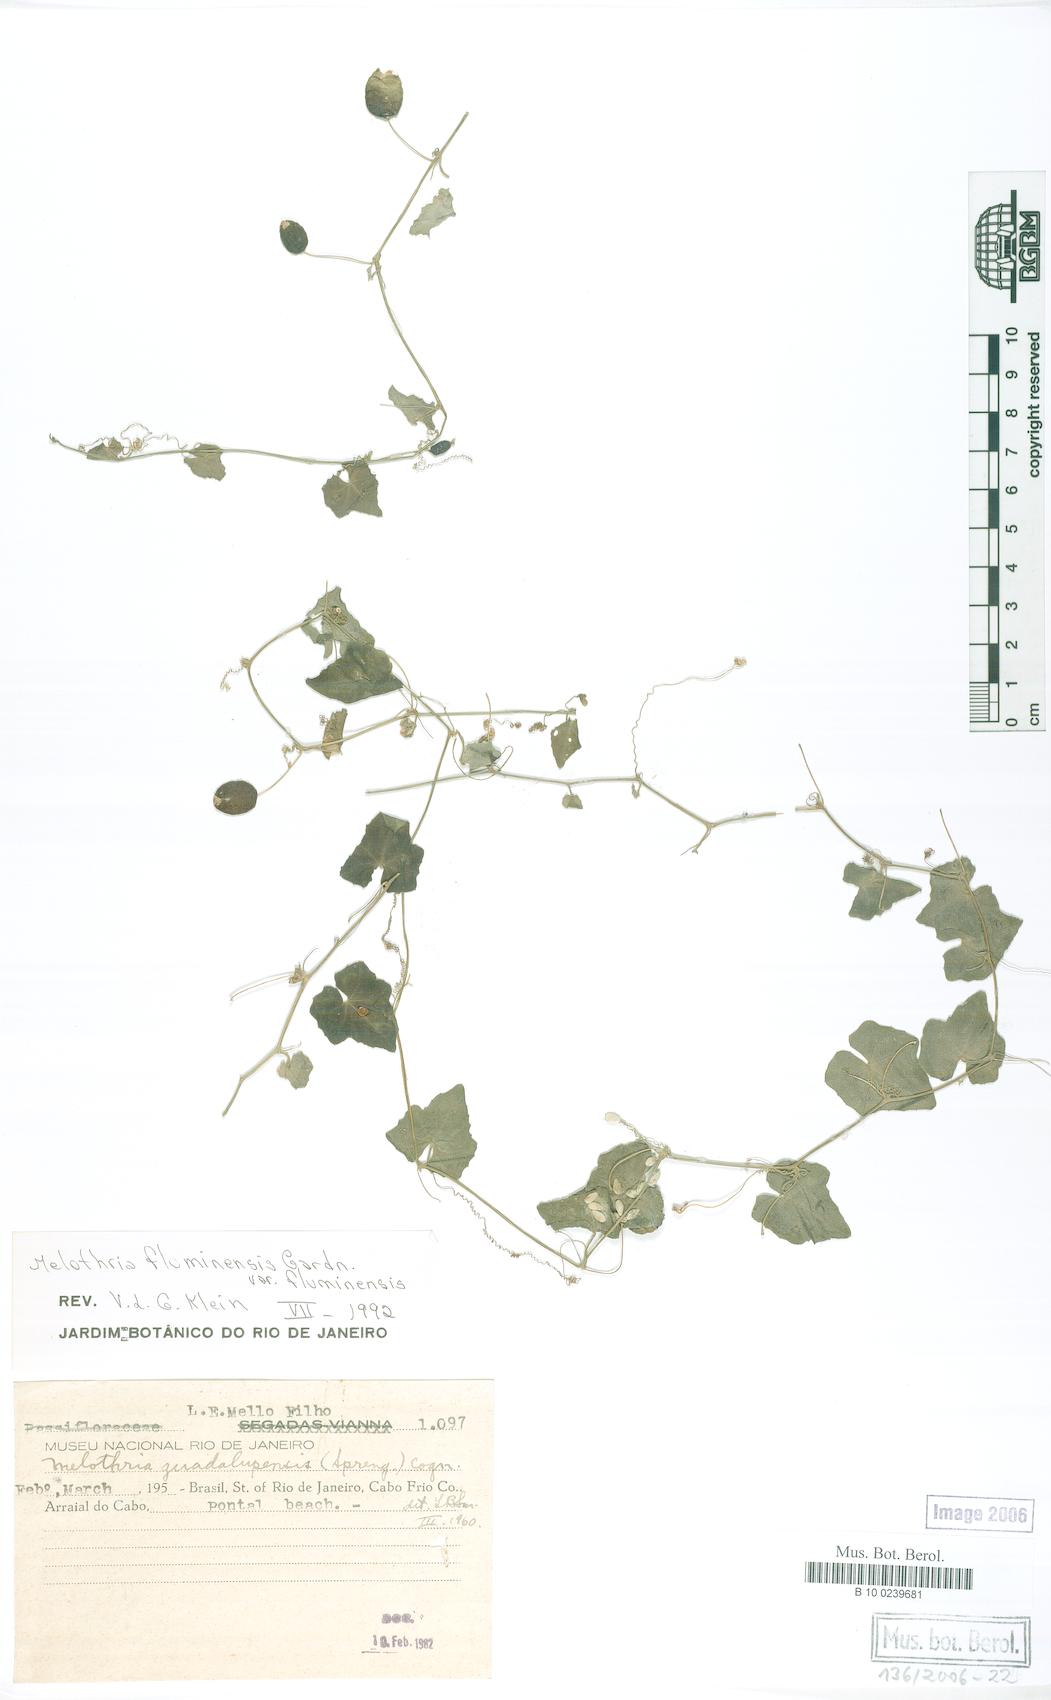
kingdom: Plantae
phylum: Tracheophyta
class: Magnoliopsida
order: Cucurbitales
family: Cucurbitaceae
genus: Melothria
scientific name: Melothria fluminensis
